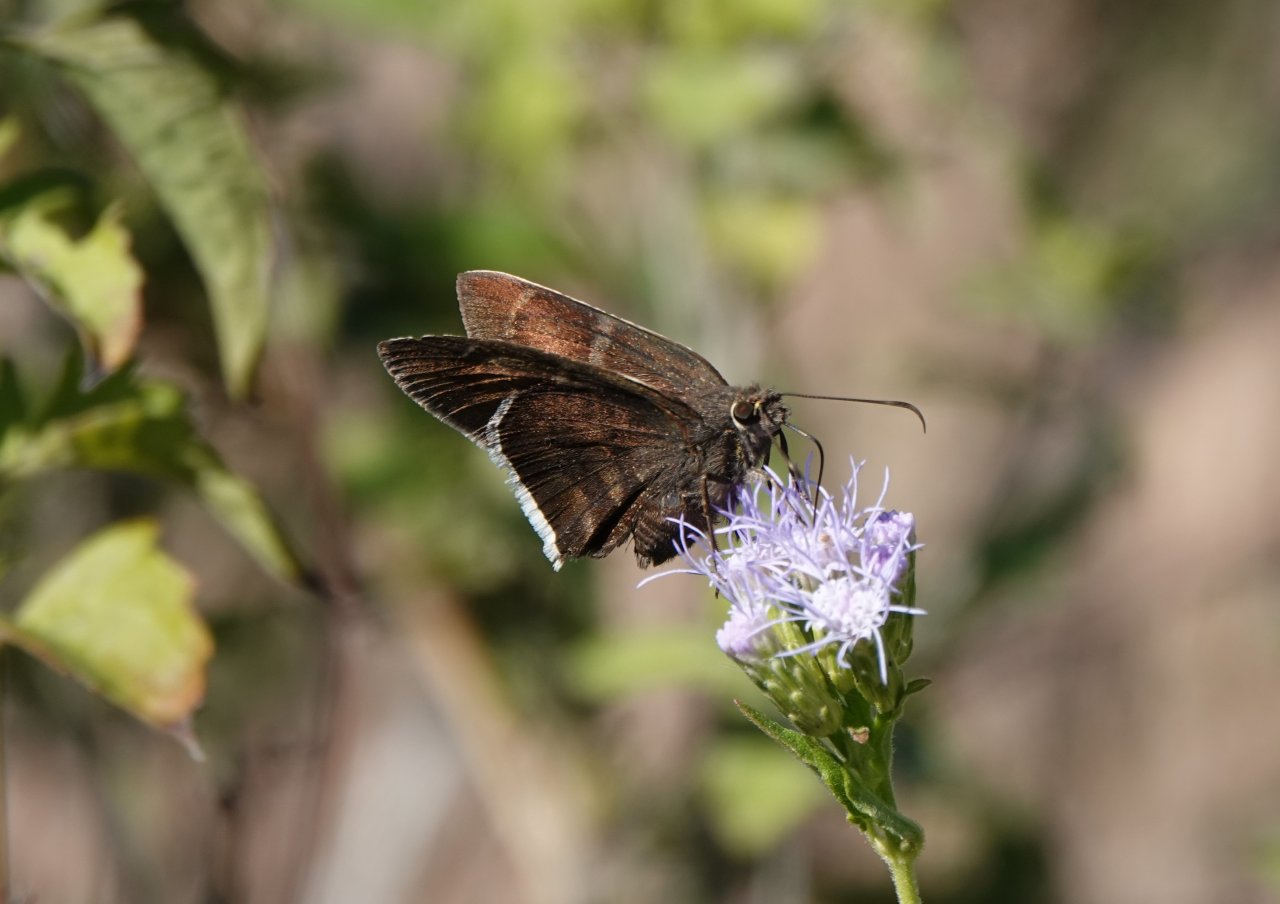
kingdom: Animalia
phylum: Arthropoda
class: Insecta
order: Lepidoptera
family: Hesperiidae
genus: Achalarus
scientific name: Achalarus toxeus
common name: Coyote Cloudywing
